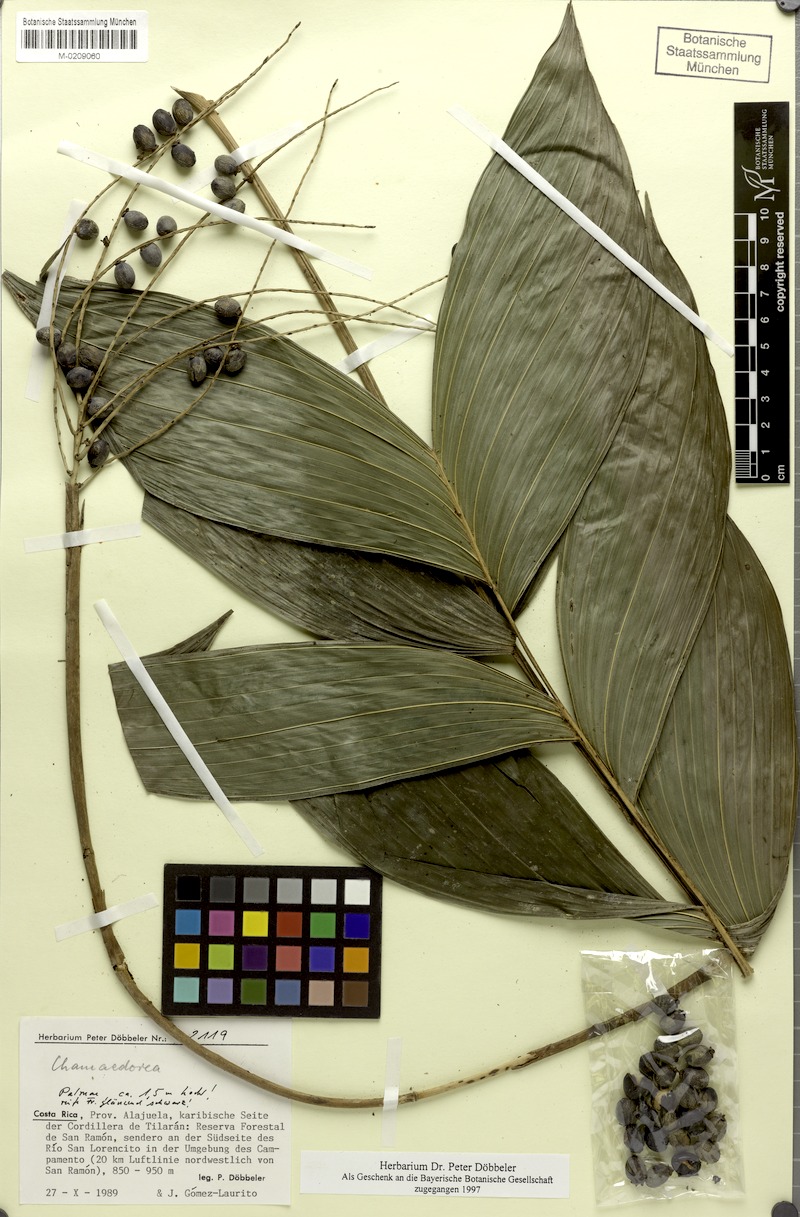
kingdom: Plantae
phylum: Tracheophyta
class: Liliopsida
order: Arecales
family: Arecaceae
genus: Chamaedorea
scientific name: Chamaedorea
